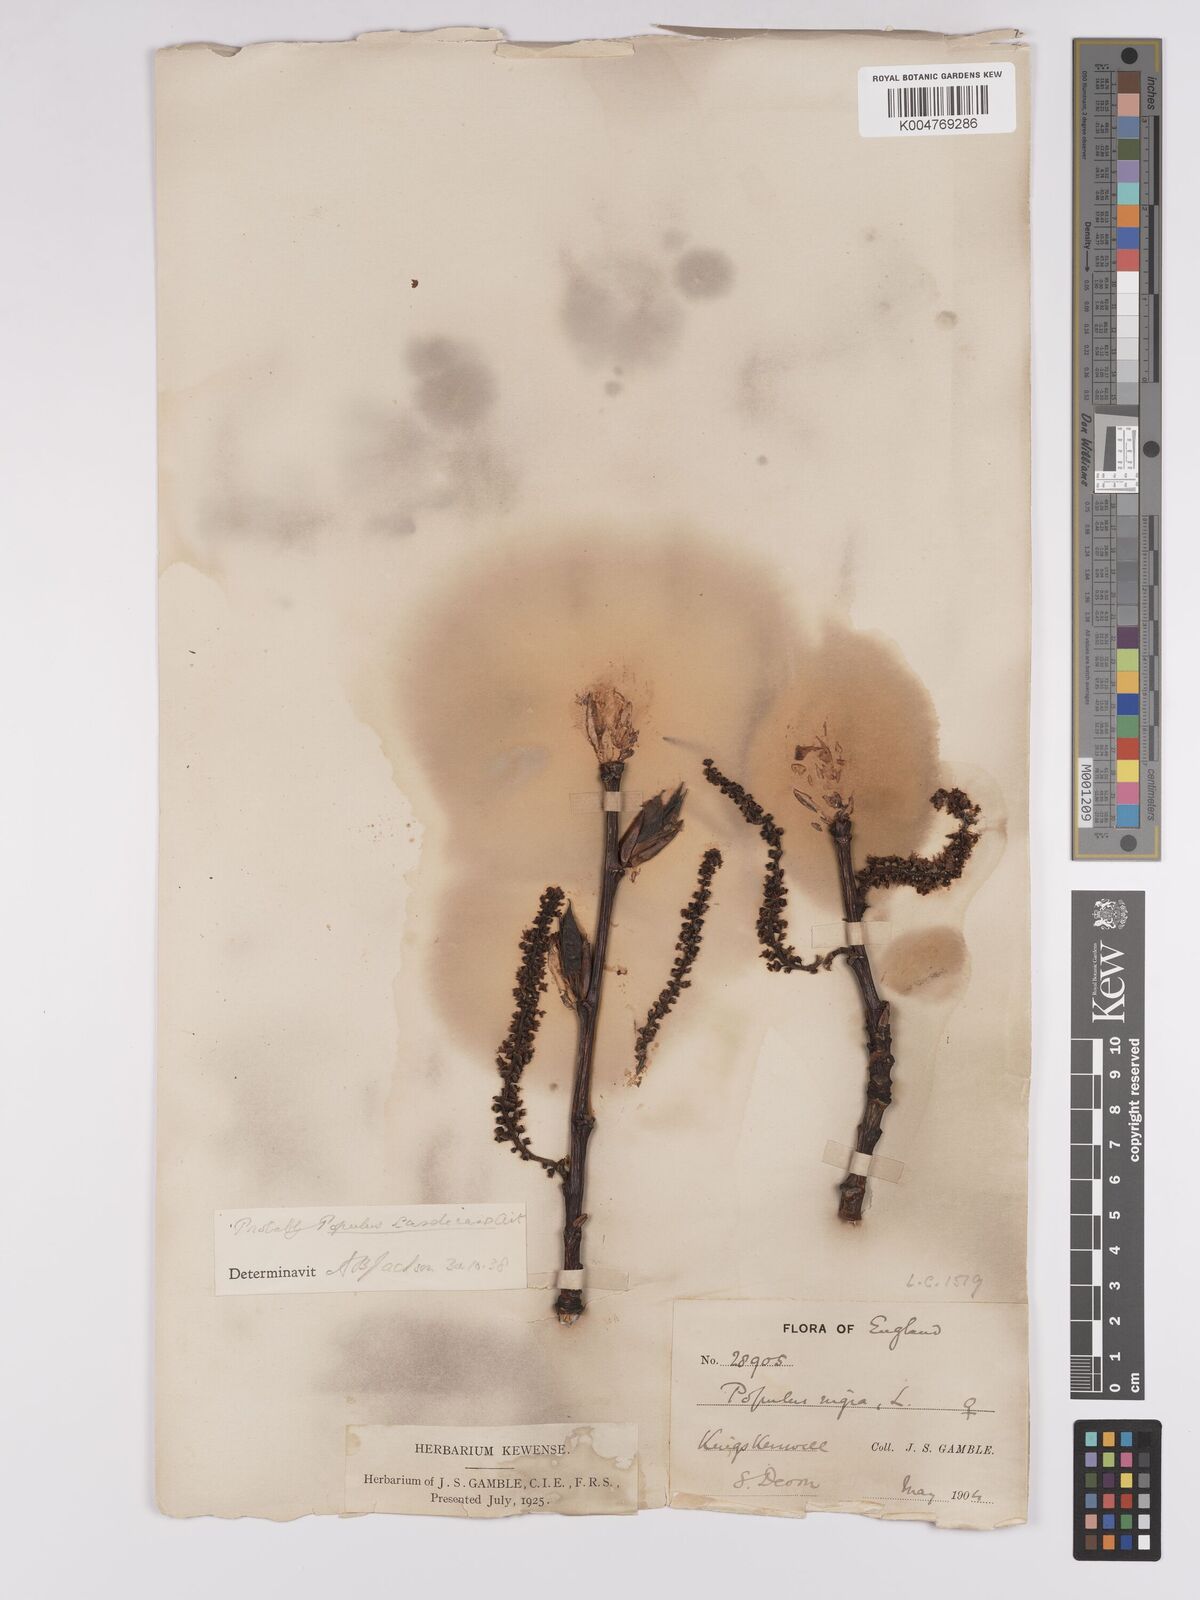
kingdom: Plantae
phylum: Tracheophyta
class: Magnoliopsida
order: Malpighiales
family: Salicaceae
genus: Populus
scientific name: Populus balsamifera
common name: Balsam poplar
